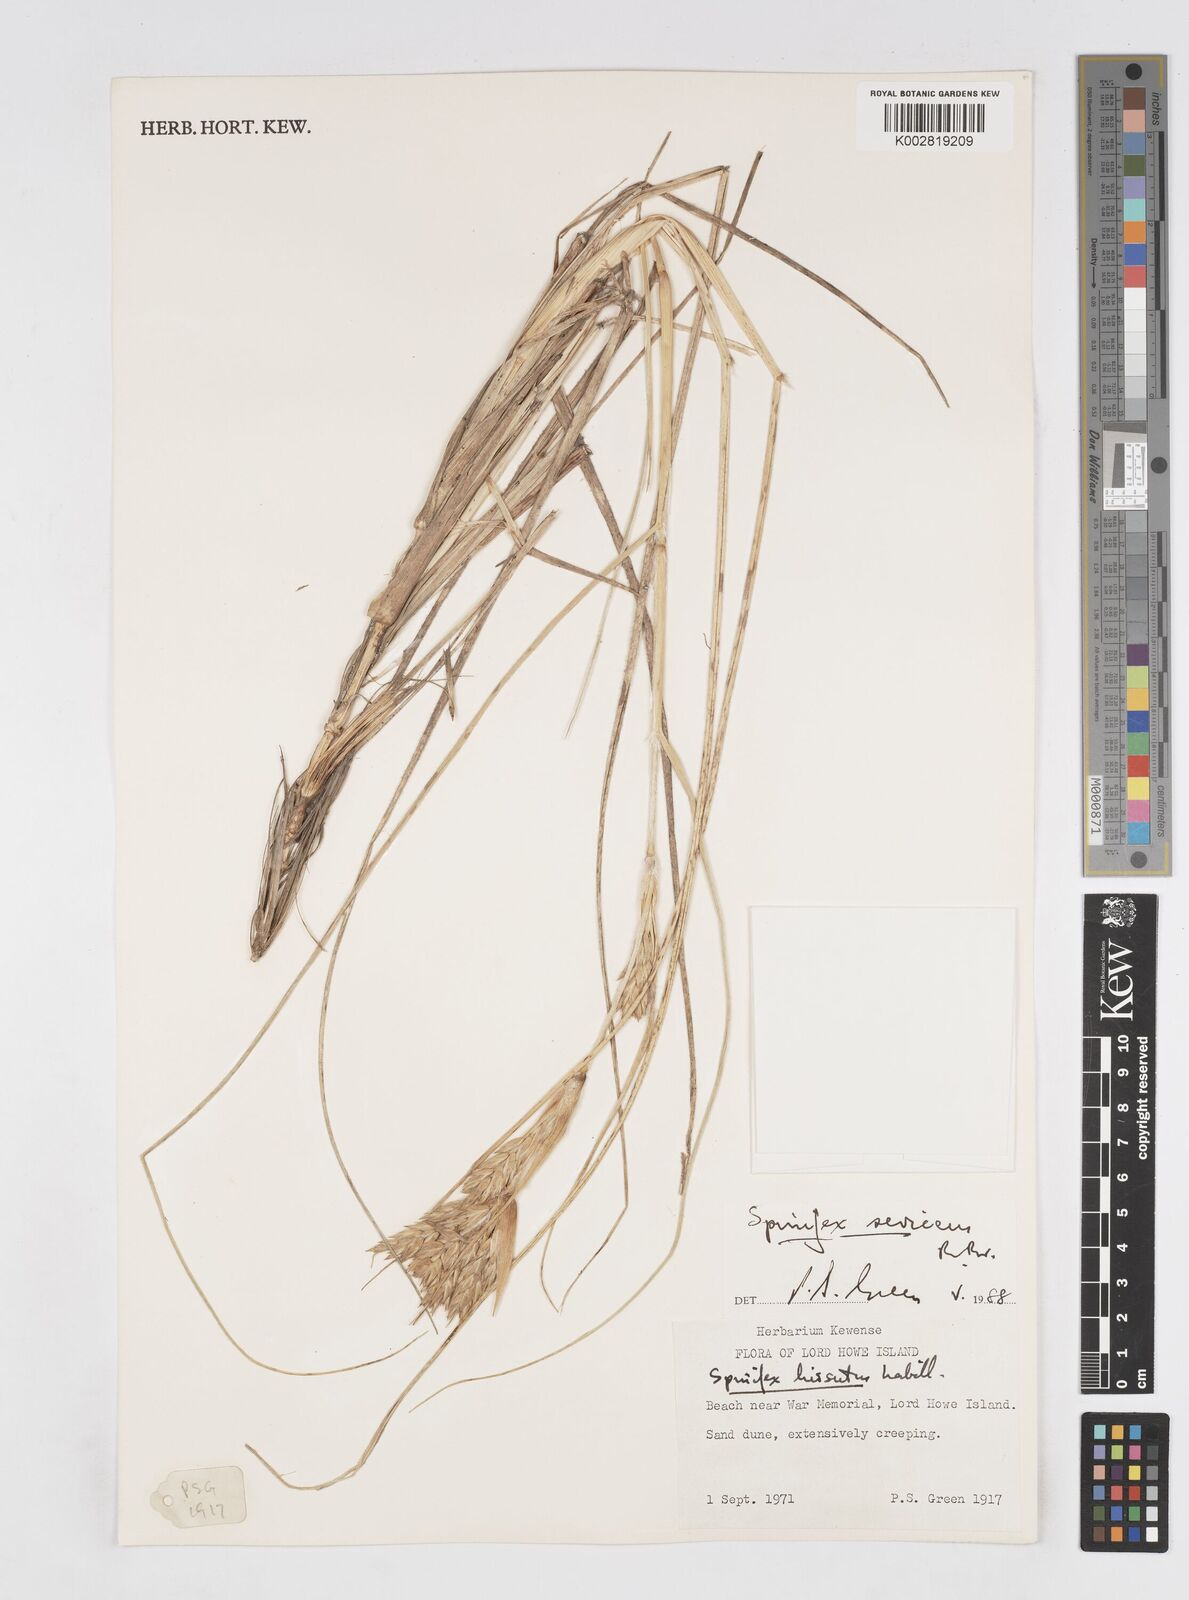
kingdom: Plantae
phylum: Tracheophyta
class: Liliopsida
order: Poales
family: Poaceae
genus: Spinifex
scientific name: Spinifex hirsutus
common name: Hairy spinifex
